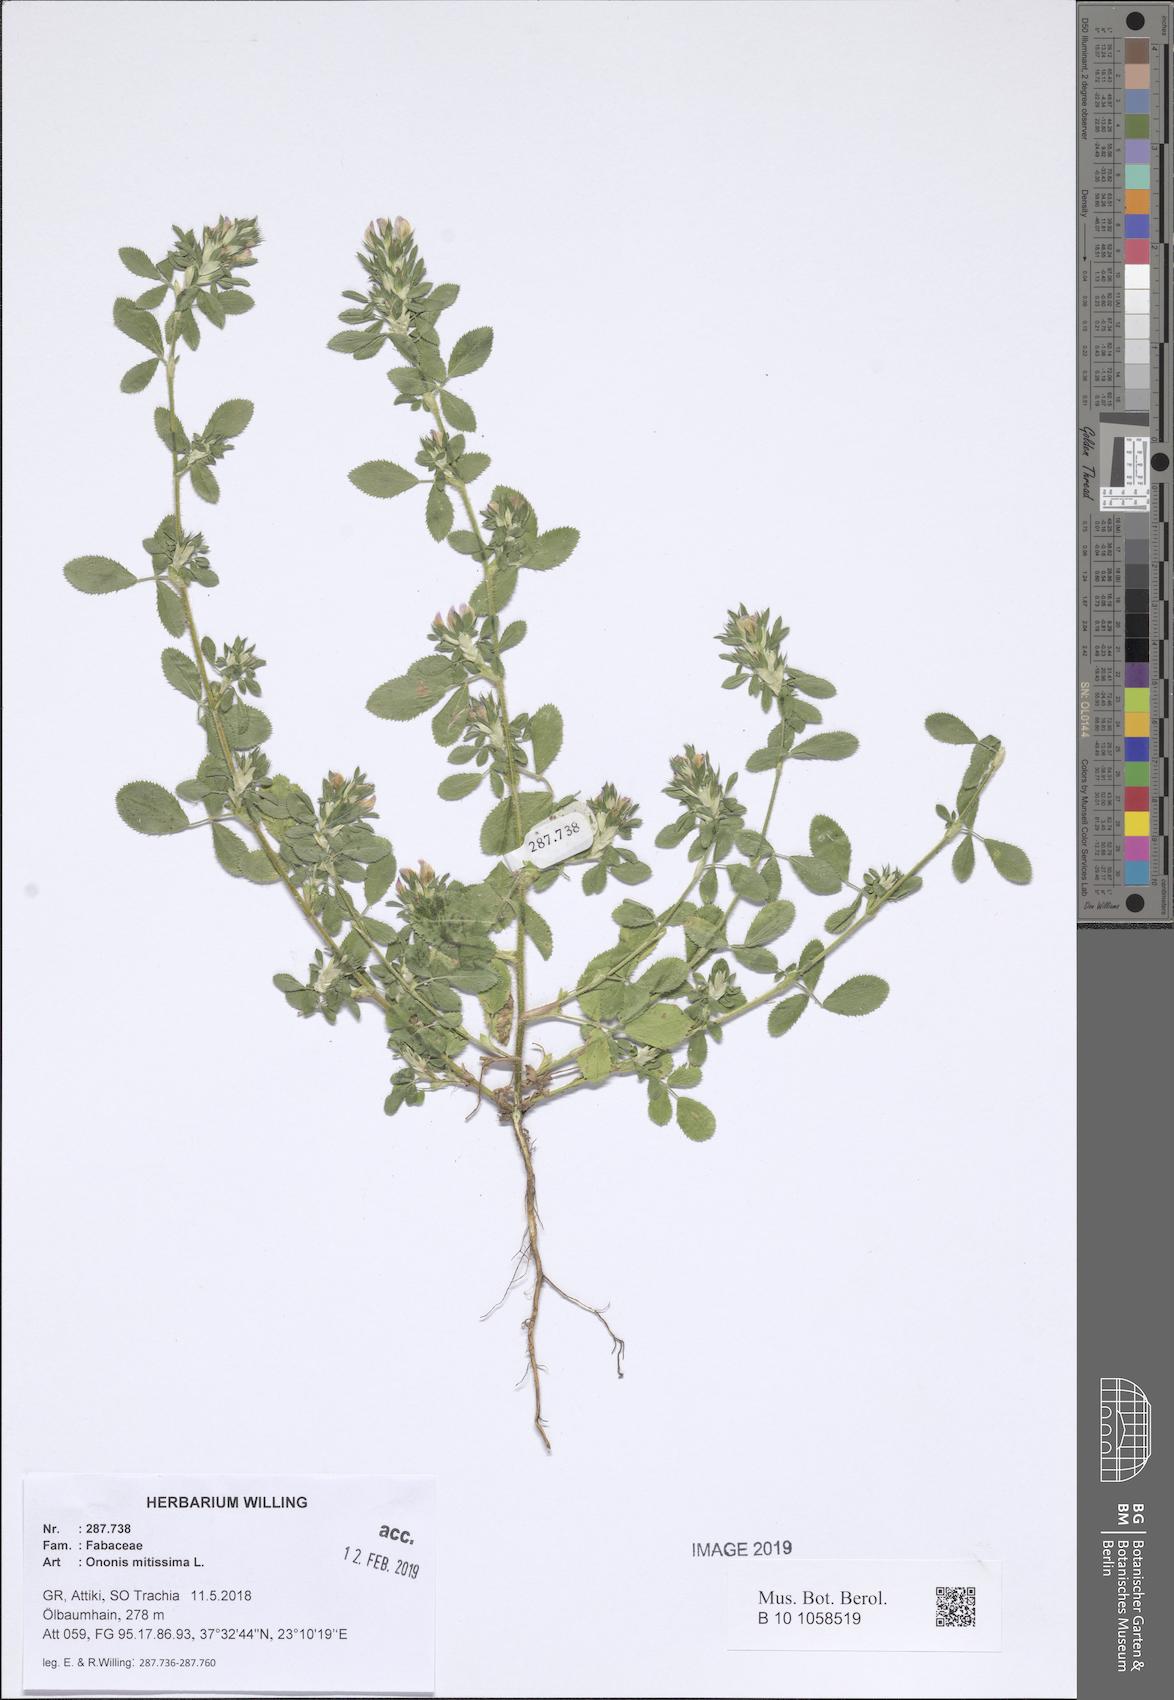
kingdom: Plantae
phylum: Tracheophyta
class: Magnoliopsida
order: Fabales
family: Fabaceae
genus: Ononis
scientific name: Ononis mitissima
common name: Mediterranean restharrow
